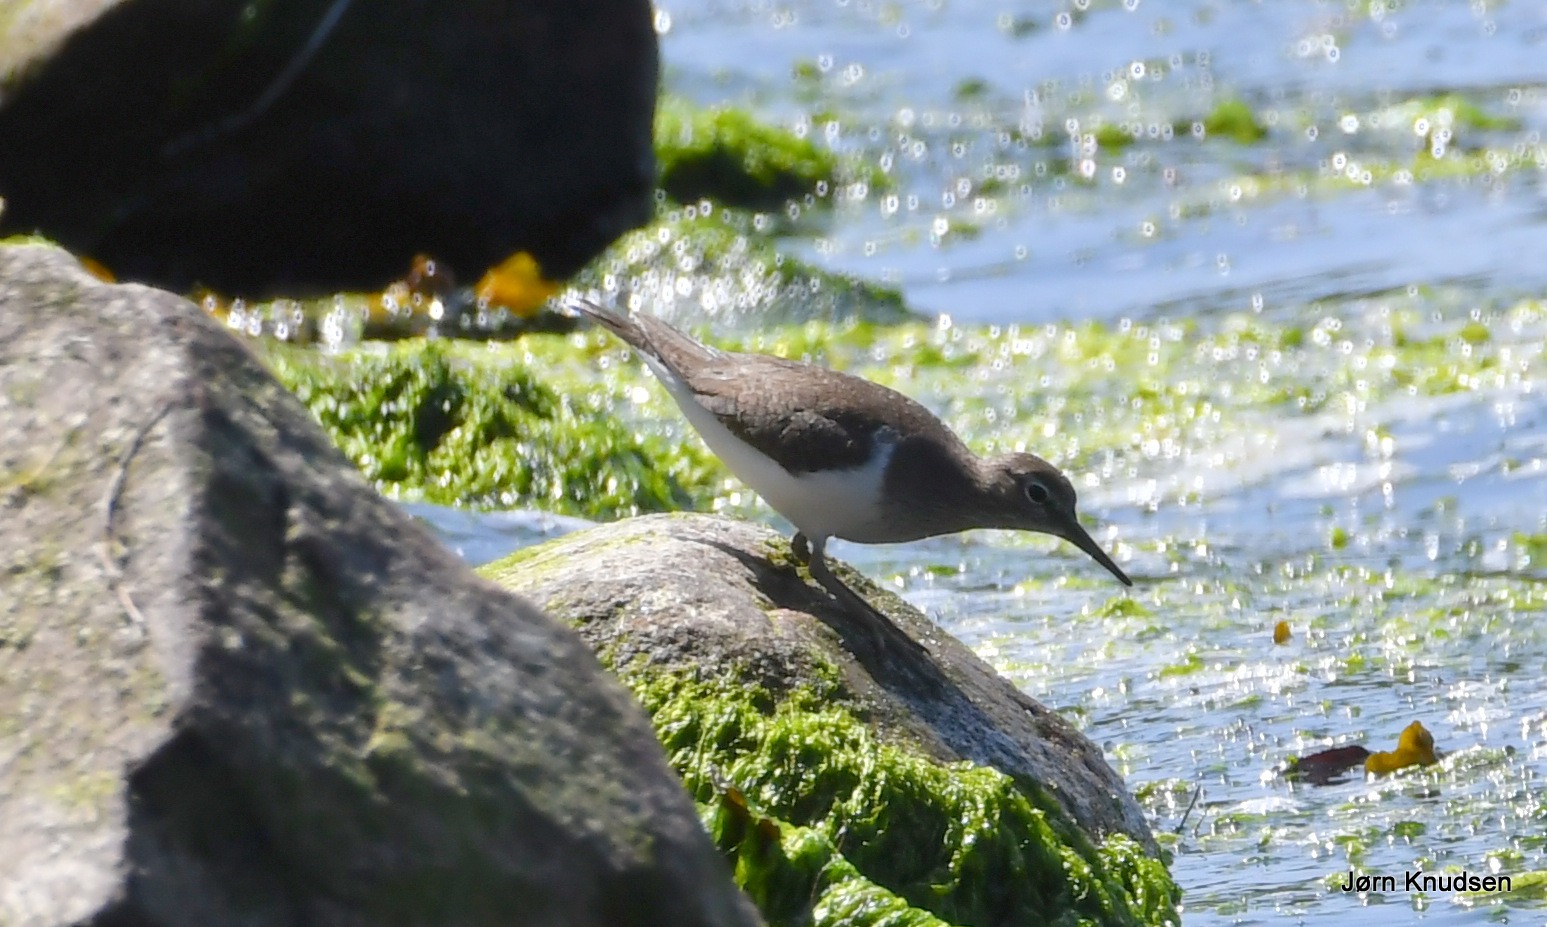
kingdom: Animalia
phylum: Chordata
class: Aves
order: Charadriiformes
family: Scolopacidae
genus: Actitis
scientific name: Actitis hypoleucos
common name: Mudderklire
